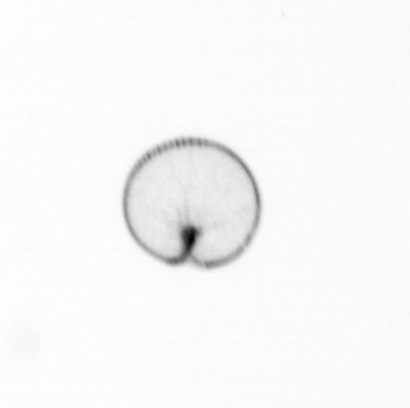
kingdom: Chromista
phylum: Myzozoa
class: Dinophyceae
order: Noctilucales
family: Noctilucaceae
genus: Noctiluca
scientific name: Noctiluca scintillans
